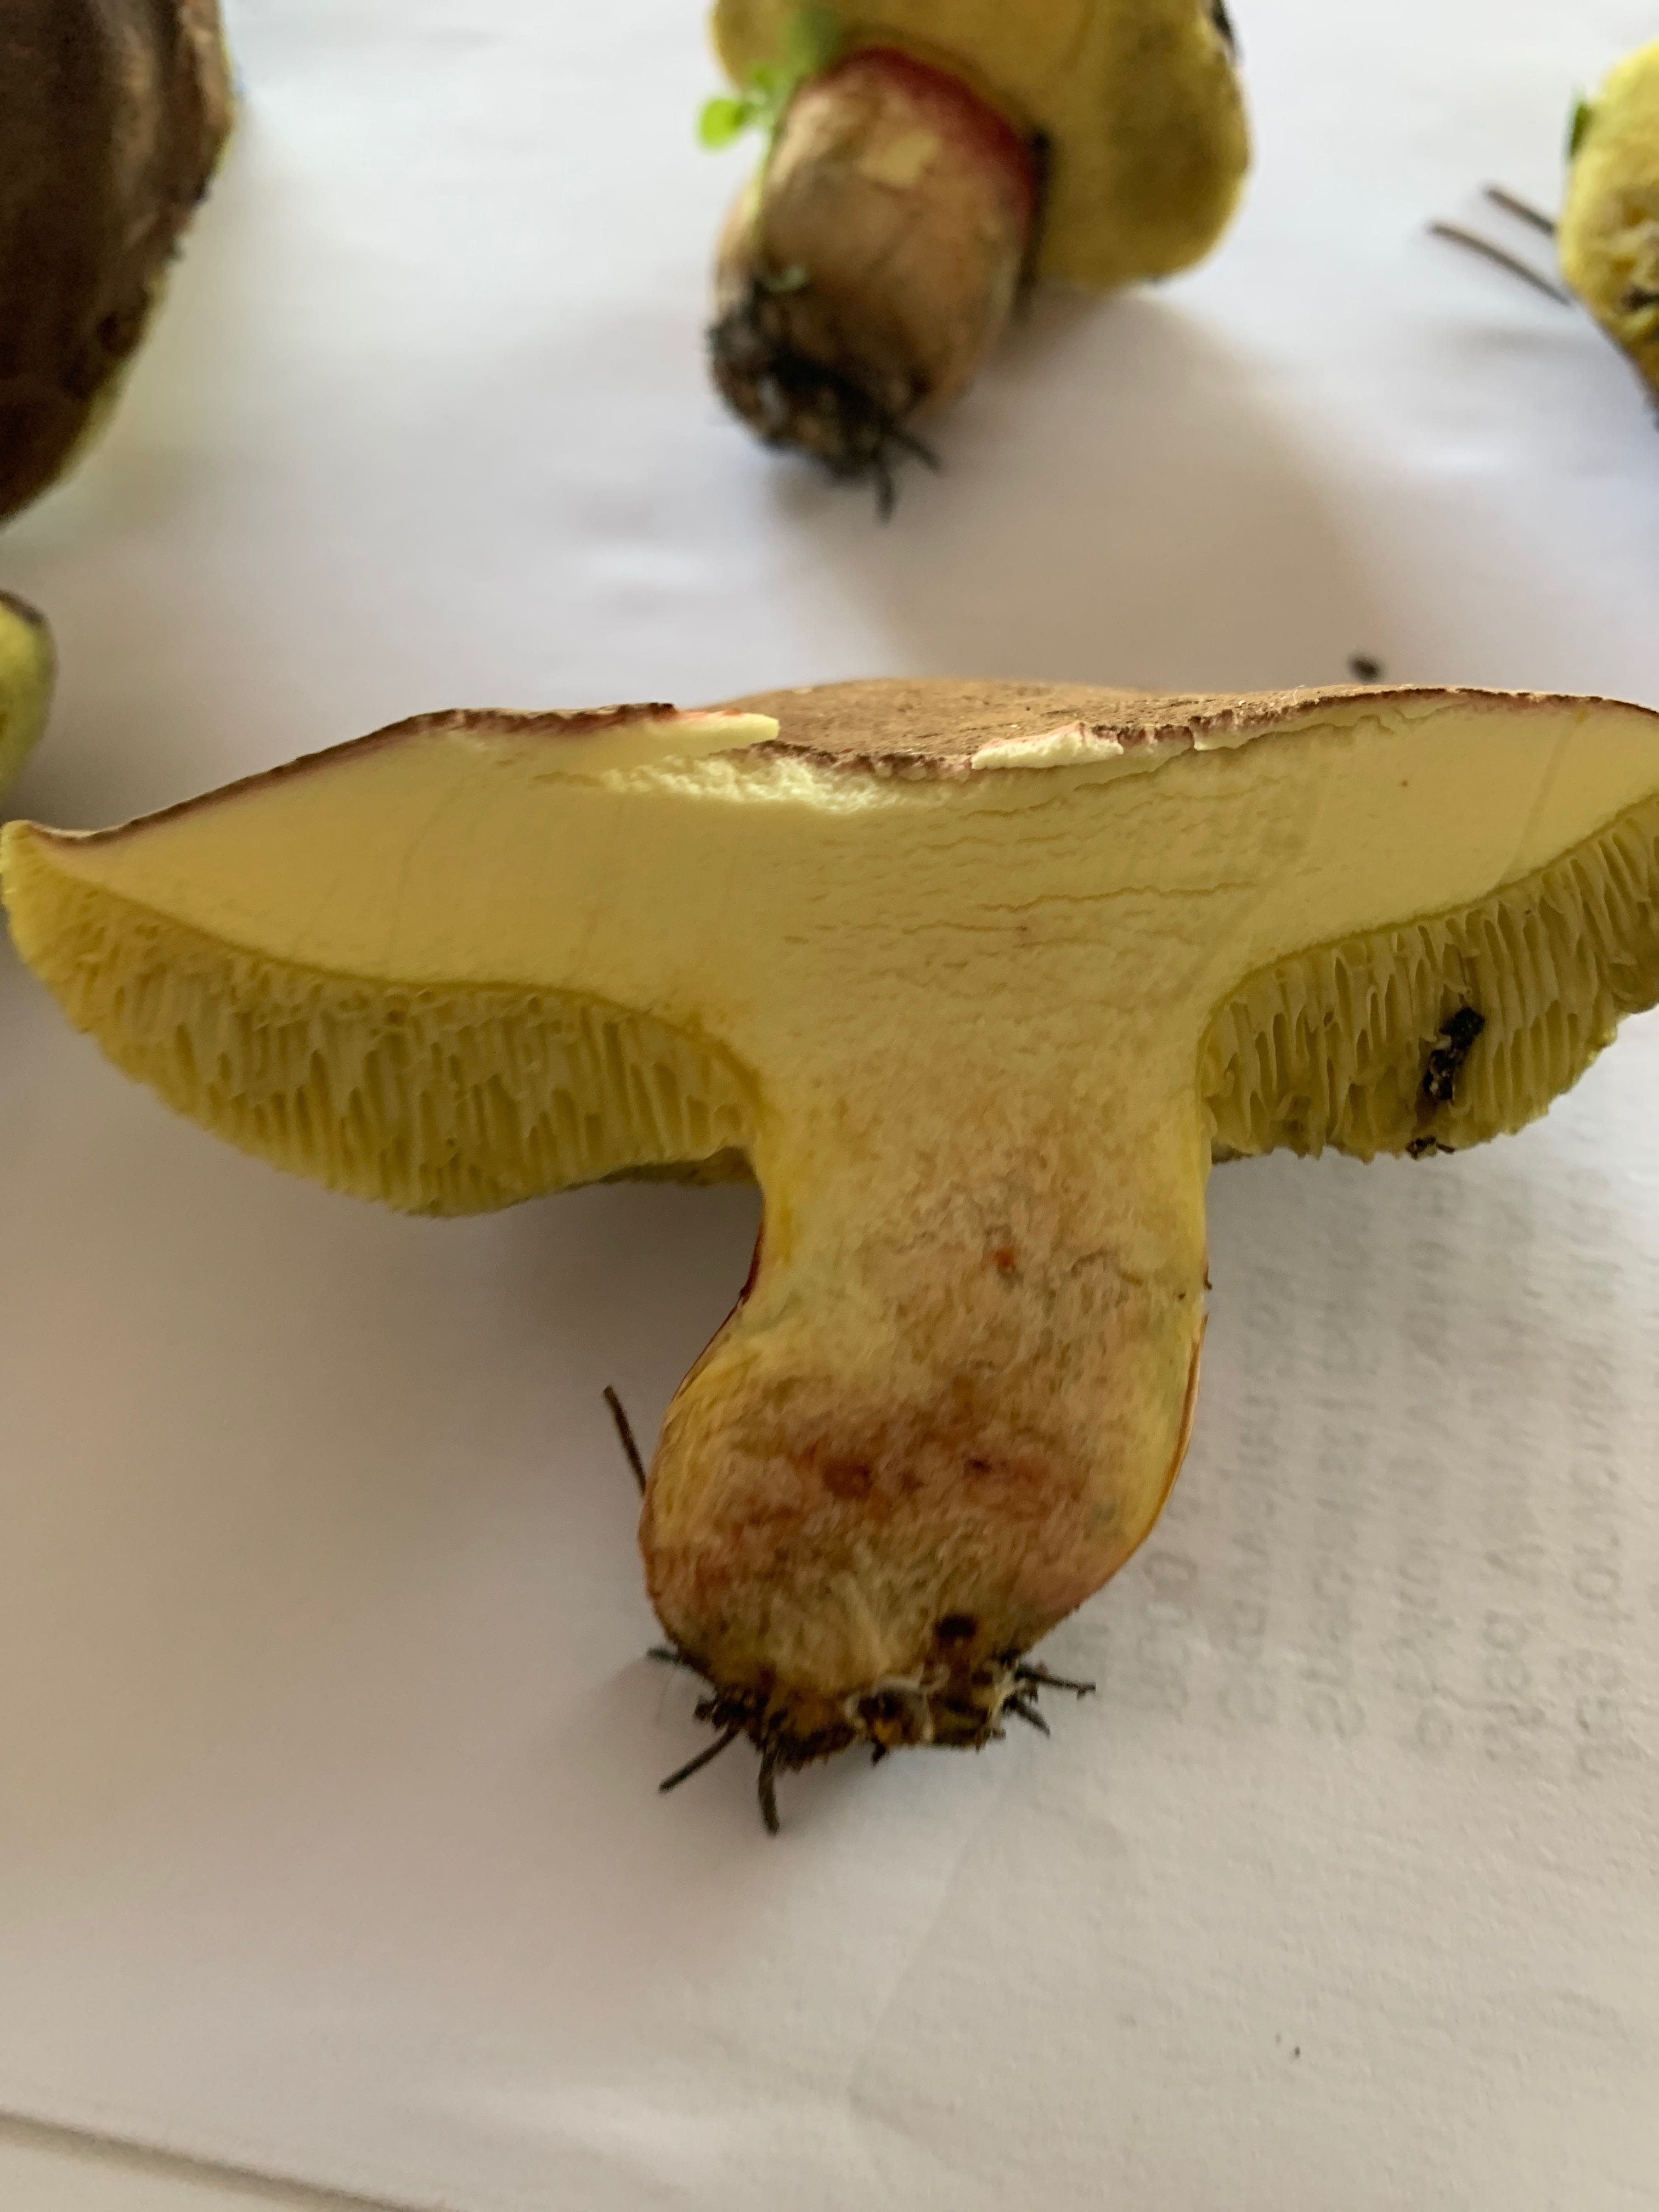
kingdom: Fungi
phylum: Basidiomycota
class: Agaricomycetes
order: Boletales
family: Boletaceae
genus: Xerocomellus
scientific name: Xerocomellus
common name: dværgrørhat
